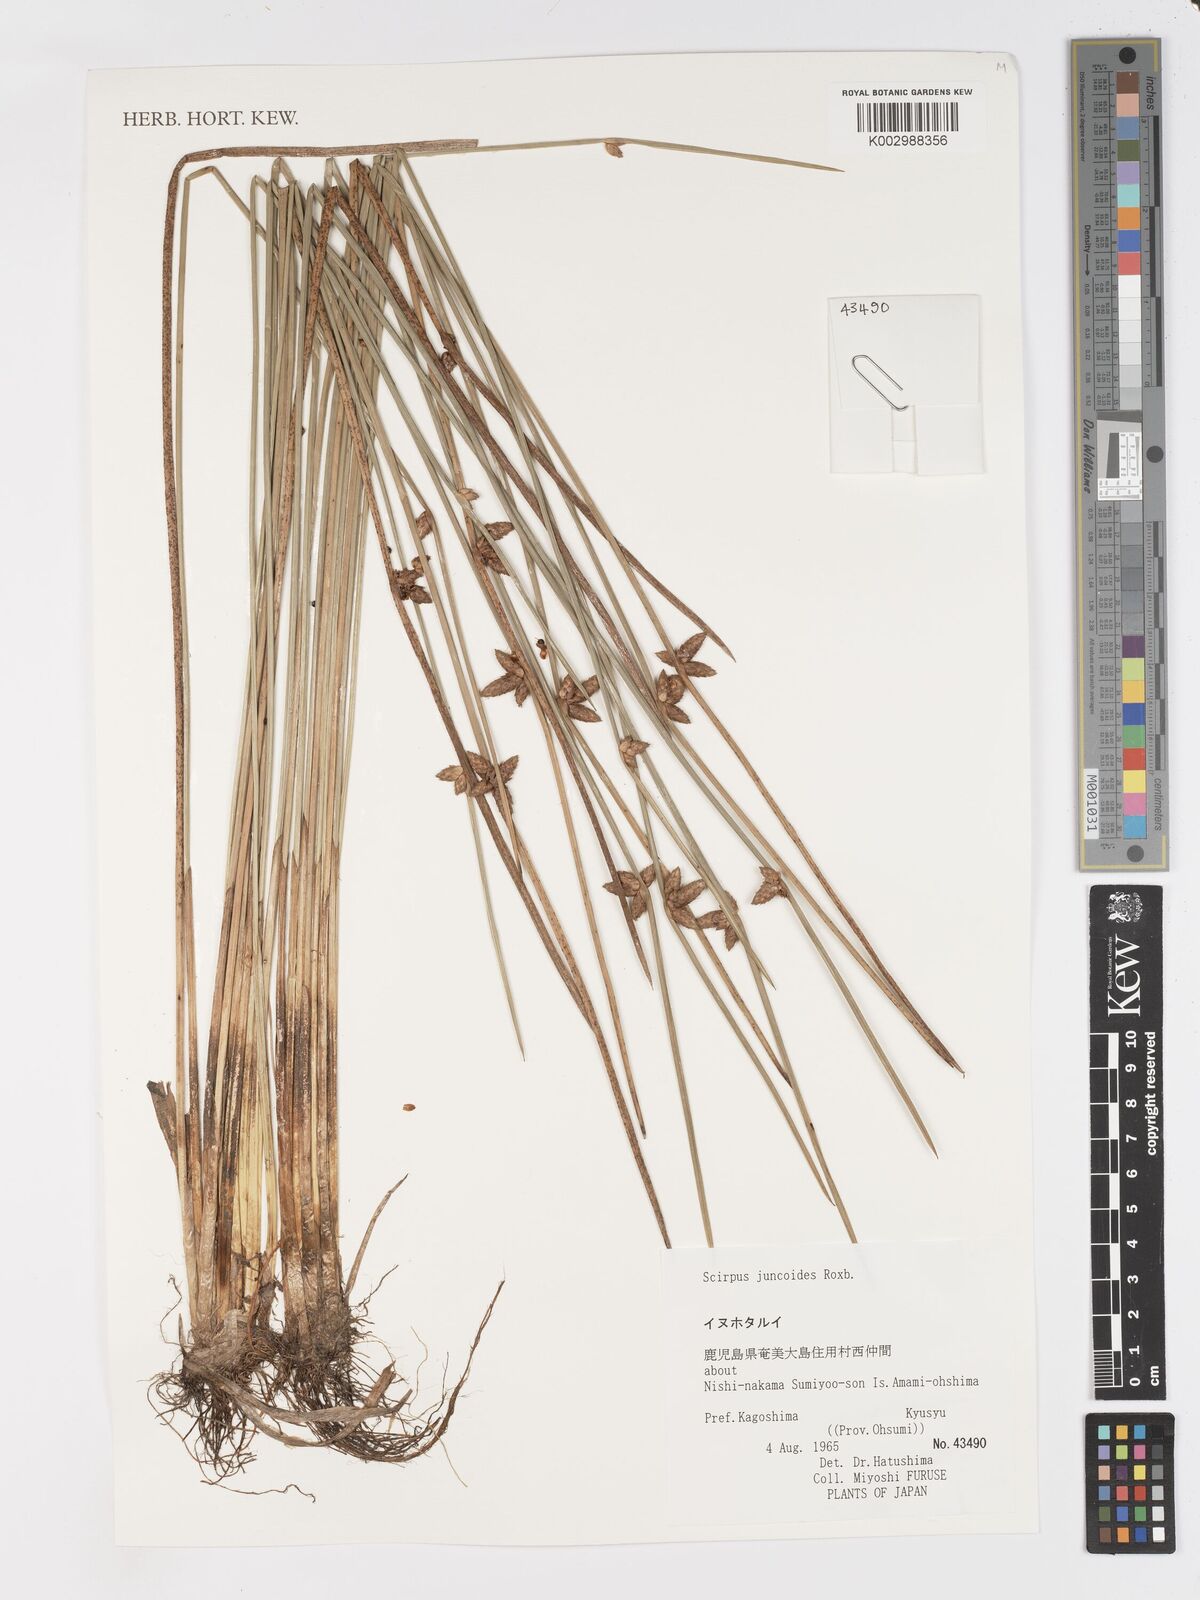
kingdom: Plantae
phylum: Tracheophyta
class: Liliopsida
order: Poales
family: Cyperaceae
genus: Schoenoplectiella
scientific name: Schoenoplectiella juncoides
